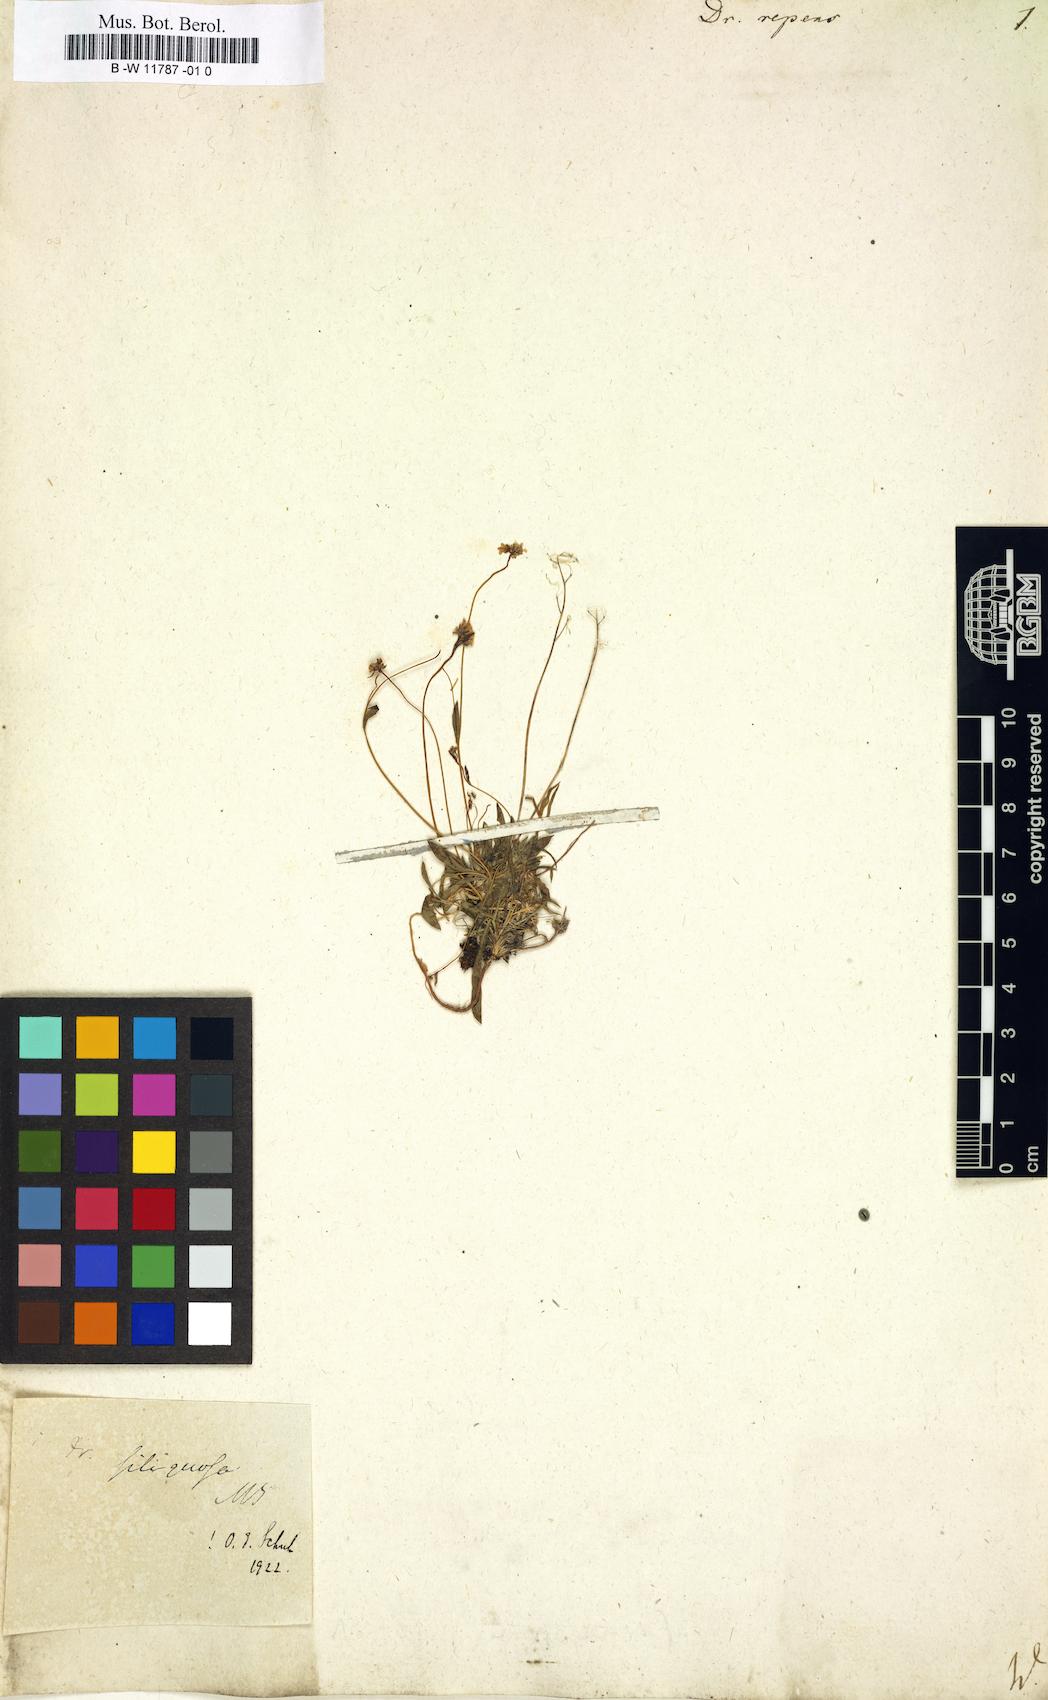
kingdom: Plantae
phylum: Tracheophyta
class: Magnoliopsida
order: Brassicales
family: Brassicaceae
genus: Draba
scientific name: Draba sibirica
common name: Siberian draba
